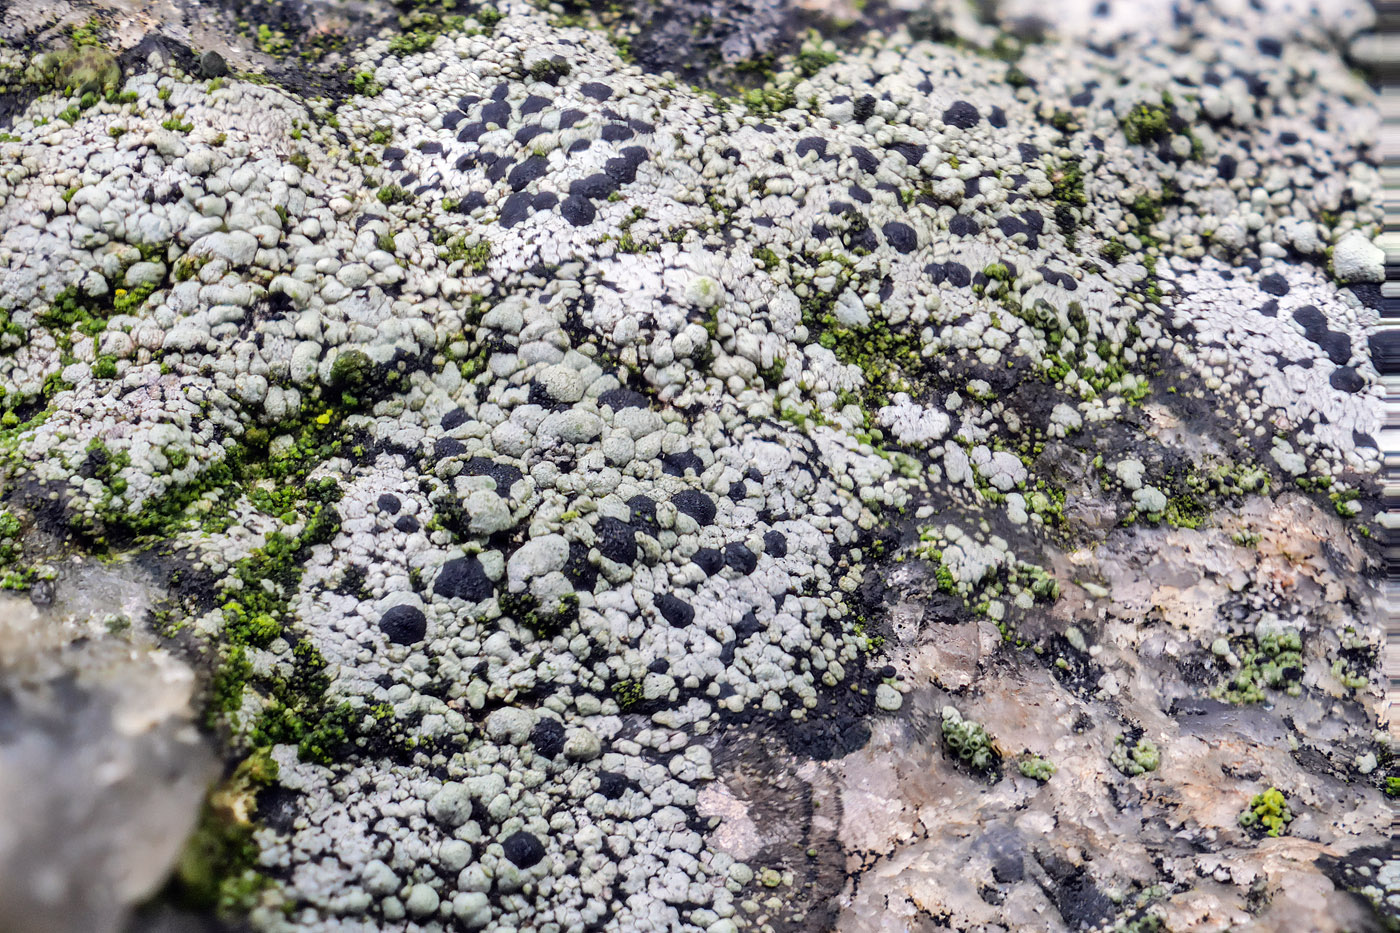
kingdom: Fungi
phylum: Ascomycota
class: Lecanoromycetes
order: Rhizocarpales
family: Rhizocarpaceae
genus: Rhizocarpon
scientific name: Rhizocarpon richardii
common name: Kyst-landkortlav
